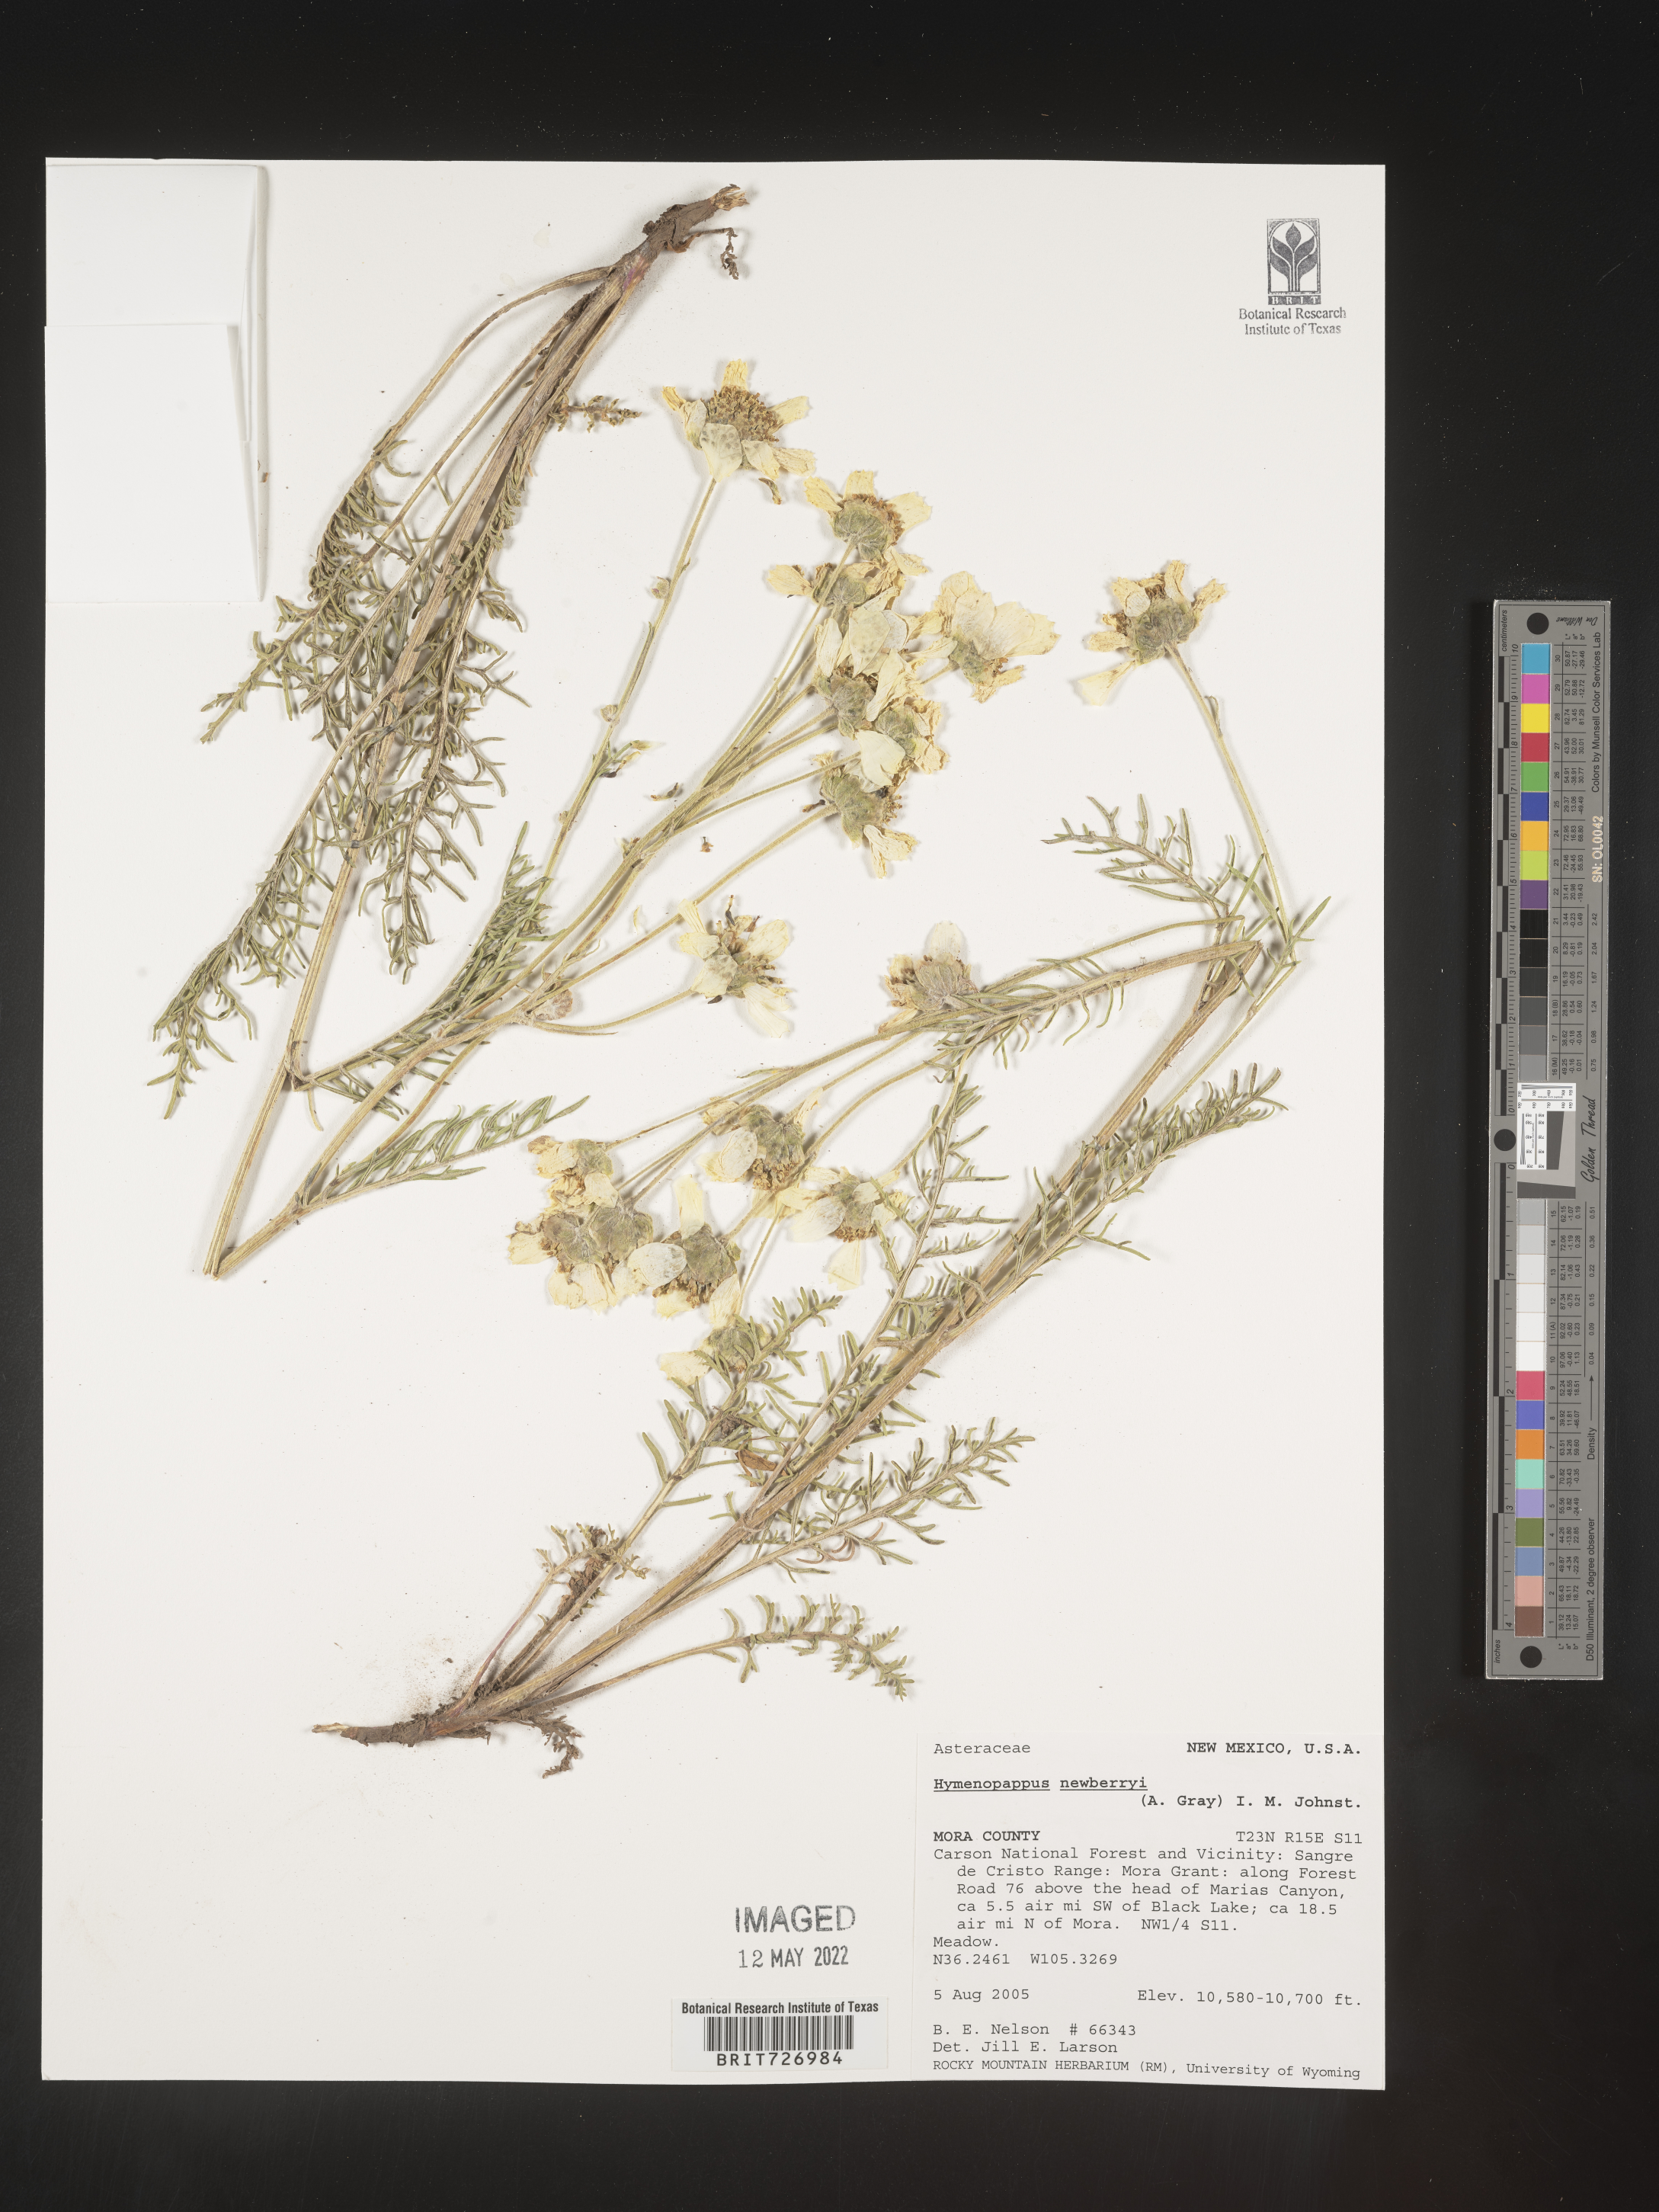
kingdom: Plantae
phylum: Tracheophyta
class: Magnoliopsida
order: Asterales
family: Asteraceae
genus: Hymenopappus
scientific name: Hymenopappus newberryi
